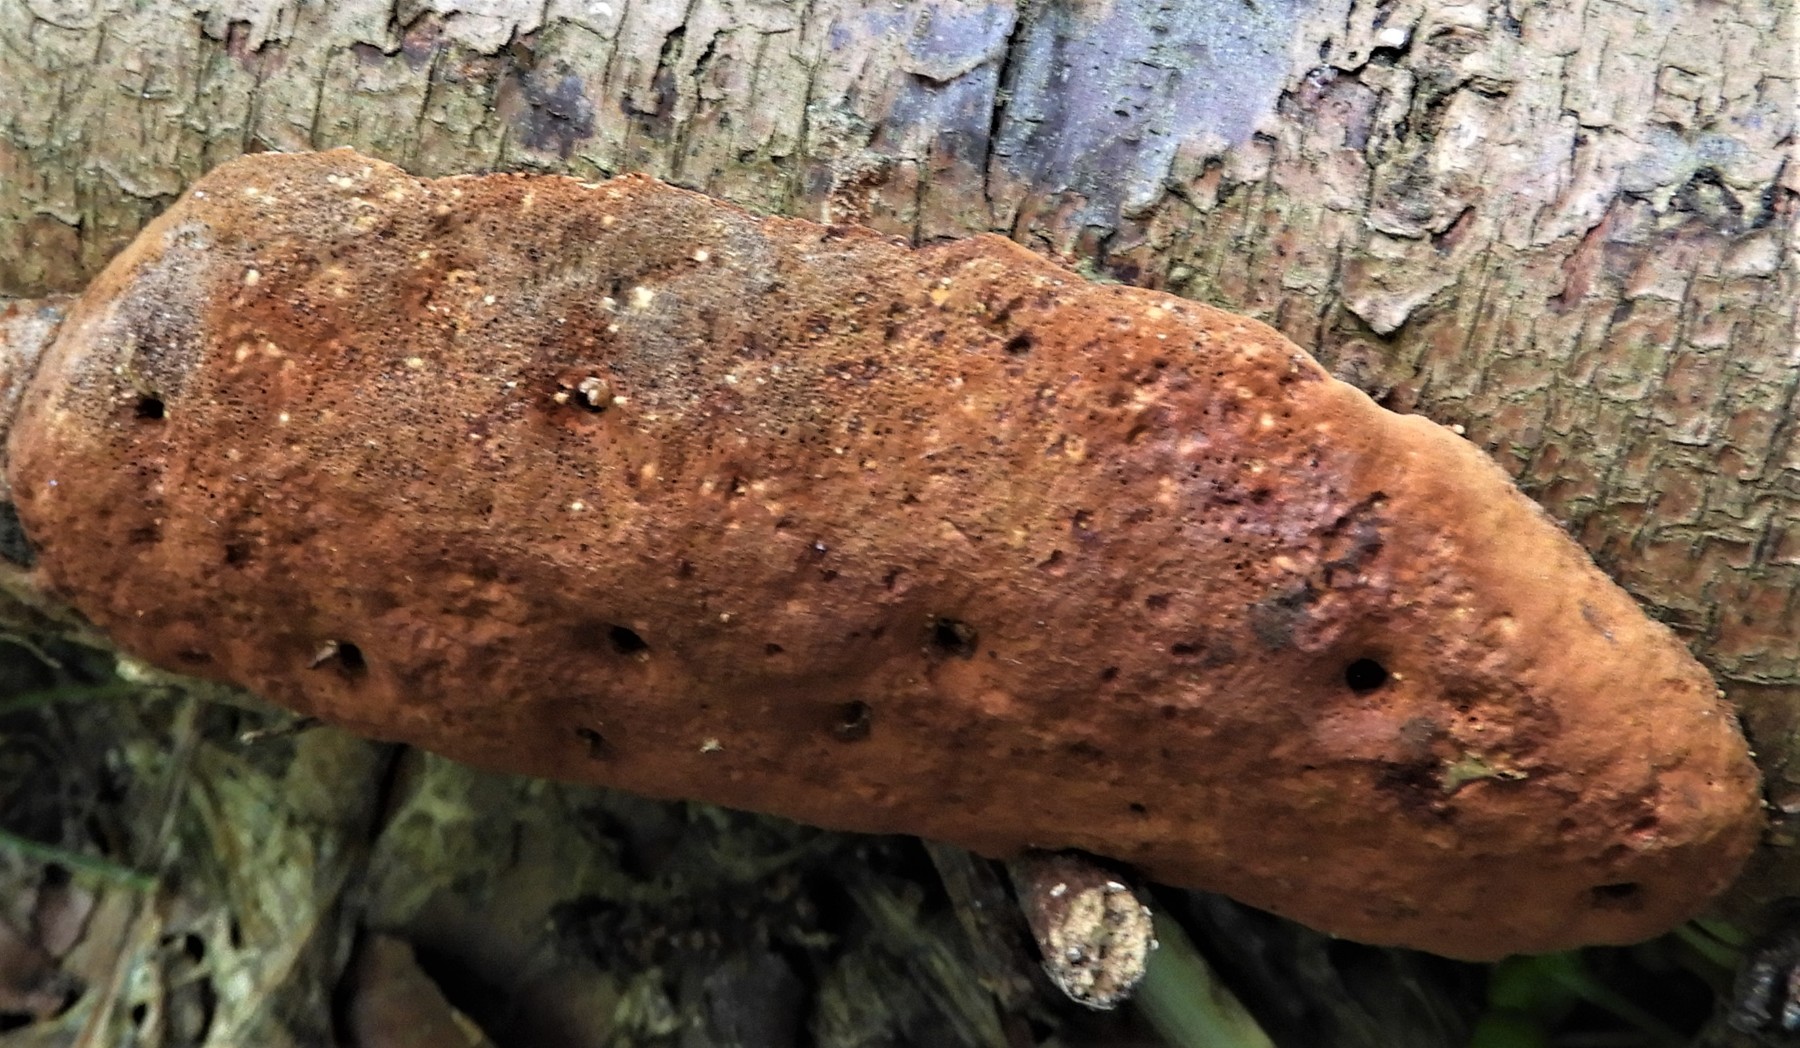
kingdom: Fungi
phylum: Basidiomycota
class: Agaricomycetes
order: Polyporales
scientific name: Polyporales
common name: poresvampordenen
